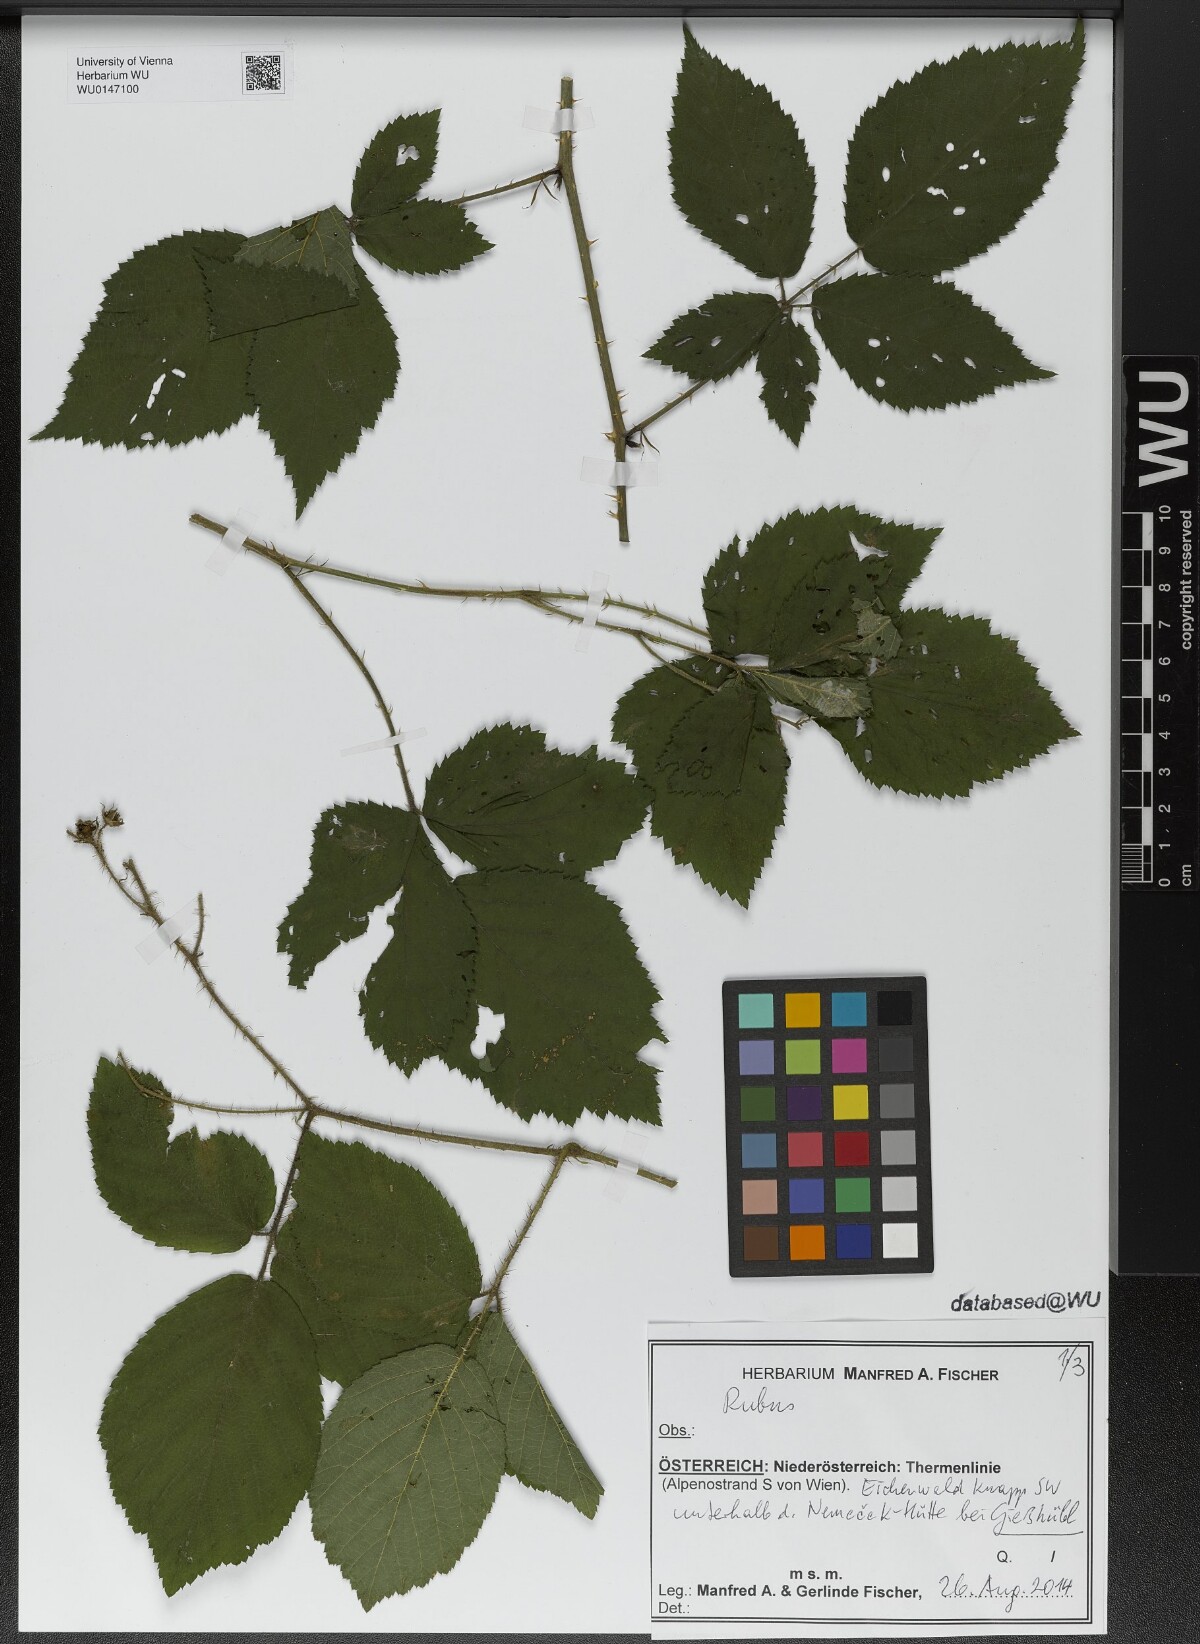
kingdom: Plantae
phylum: Tracheophyta
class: Magnoliopsida
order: Rosales
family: Rosaceae
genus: Rubus
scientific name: Rubus
